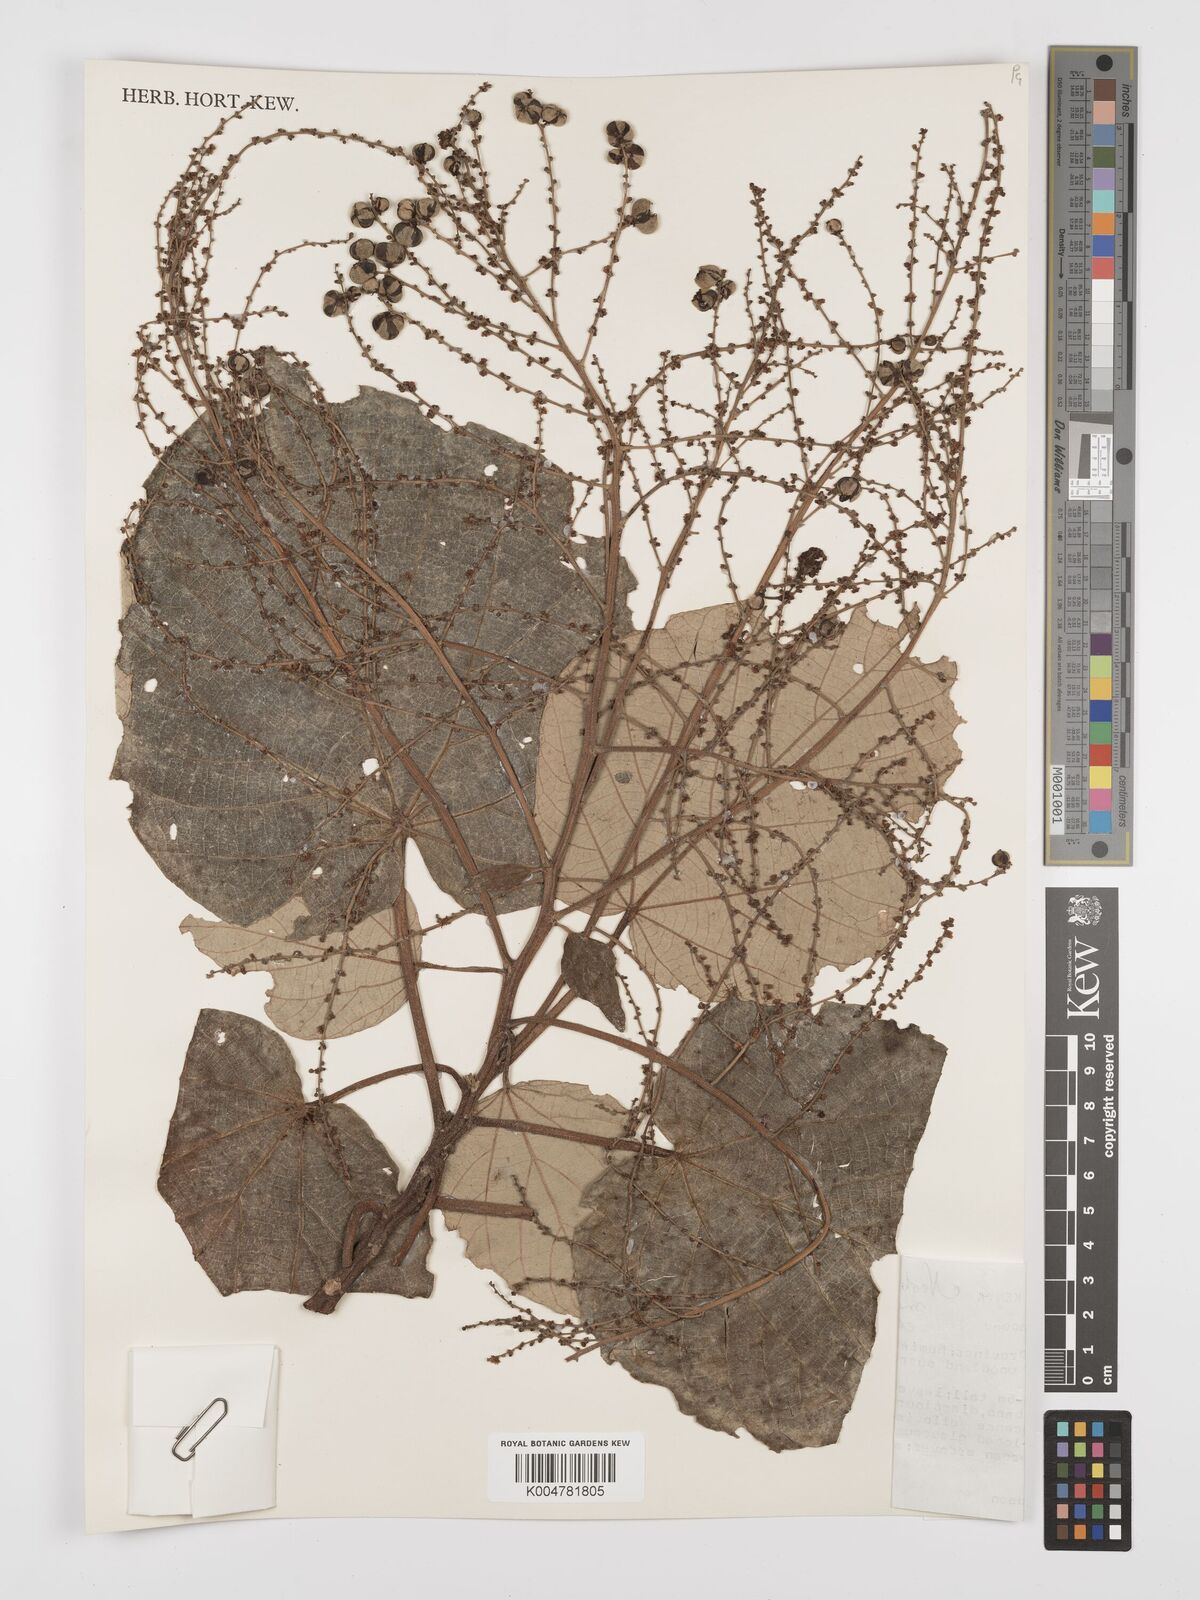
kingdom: Plantae
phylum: Tracheophyta
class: Magnoliopsida
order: Malpighiales
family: Euphorbiaceae
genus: Neoboutonia
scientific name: Neoboutonia melleri
